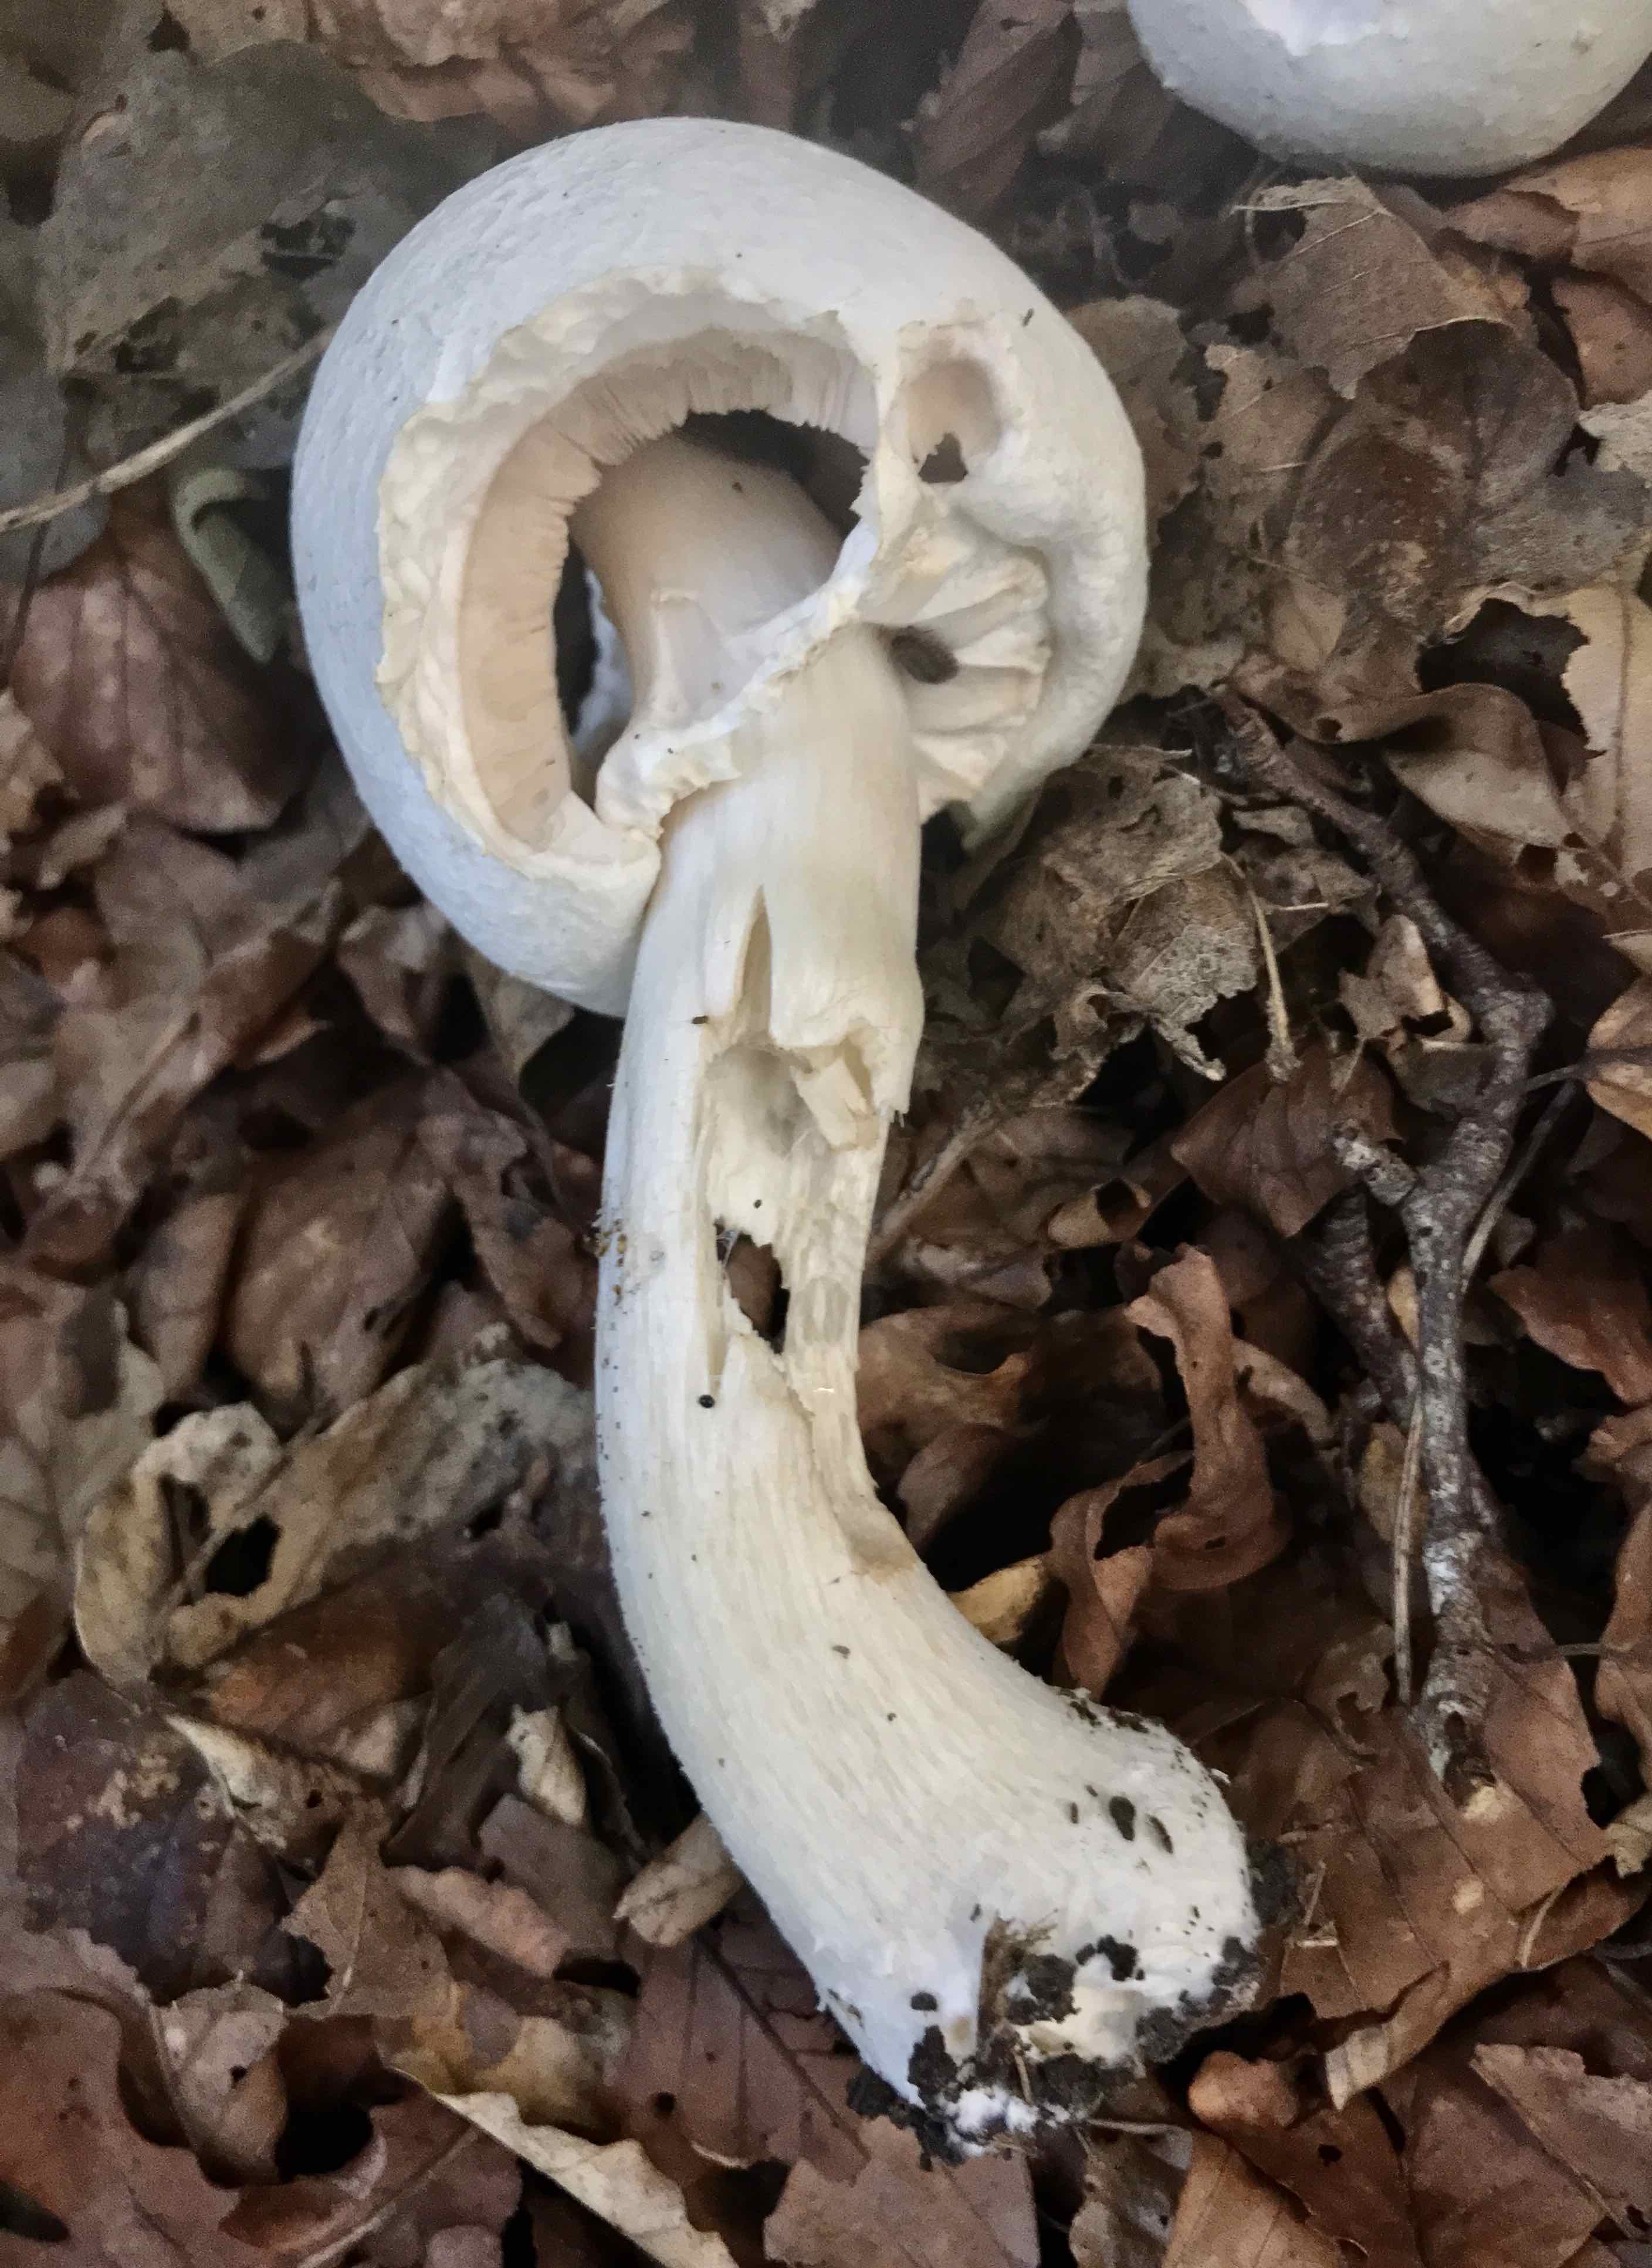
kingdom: Fungi
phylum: Basidiomycota
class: Agaricomycetes
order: Agaricales
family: Agaricaceae
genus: Agaricus
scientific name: Agaricus sylvicola
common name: gulhvid champignon
